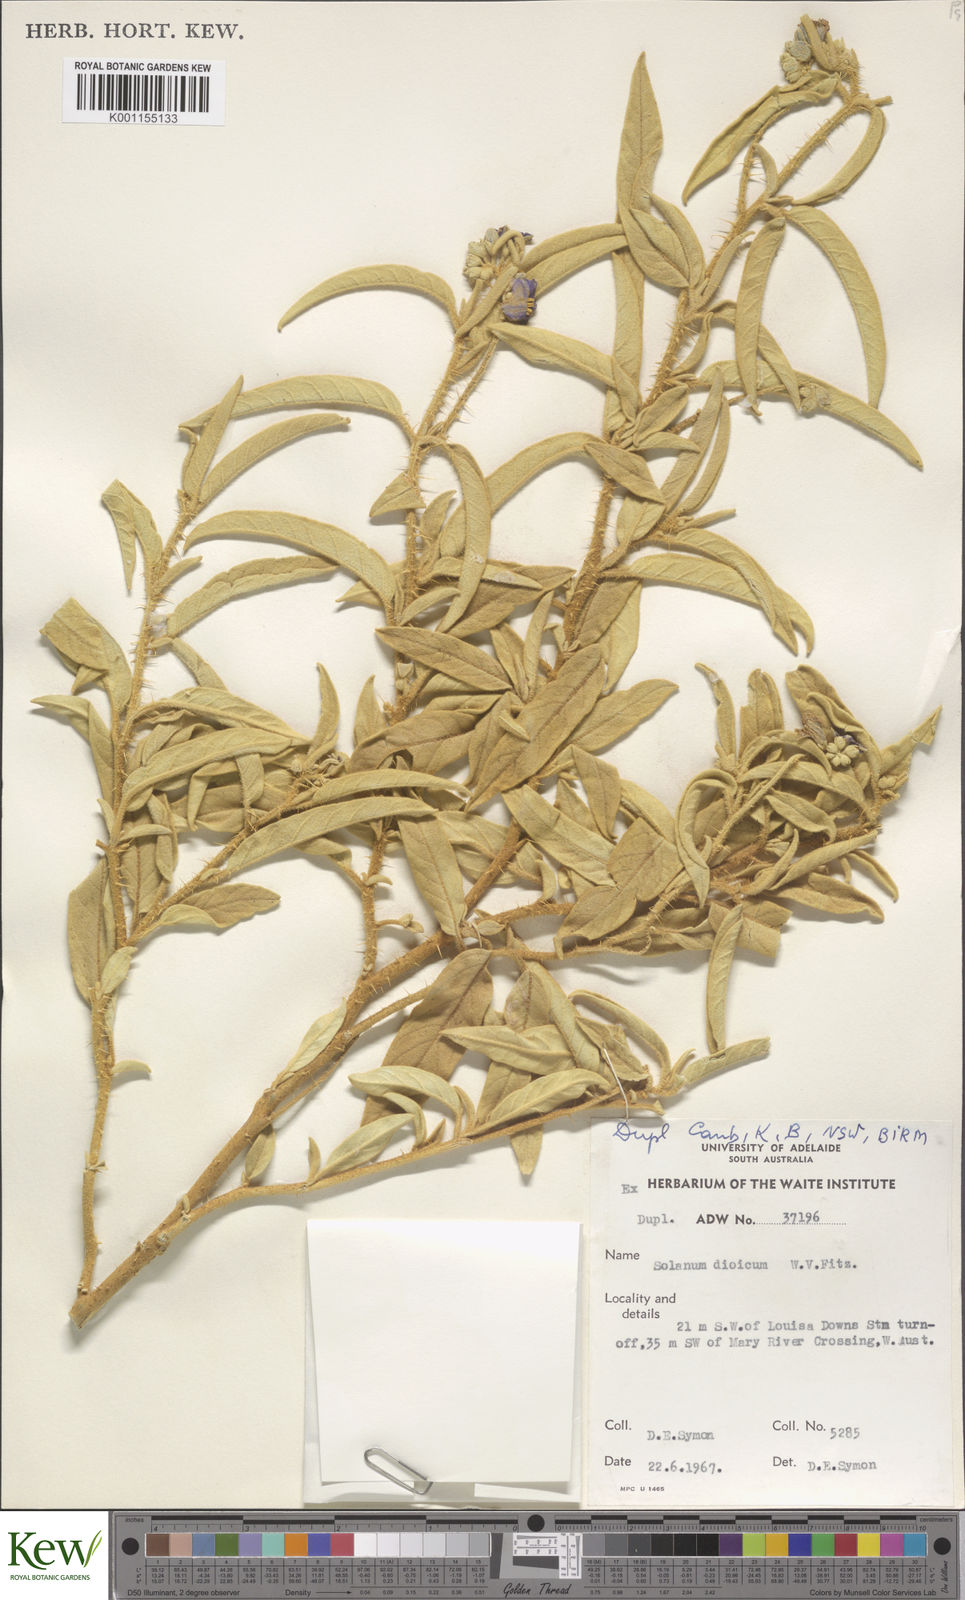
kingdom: Plantae
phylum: Tracheophyta
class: Magnoliopsida
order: Solanales
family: Solanaceae
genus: Solanum
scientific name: Solanum dioicum
